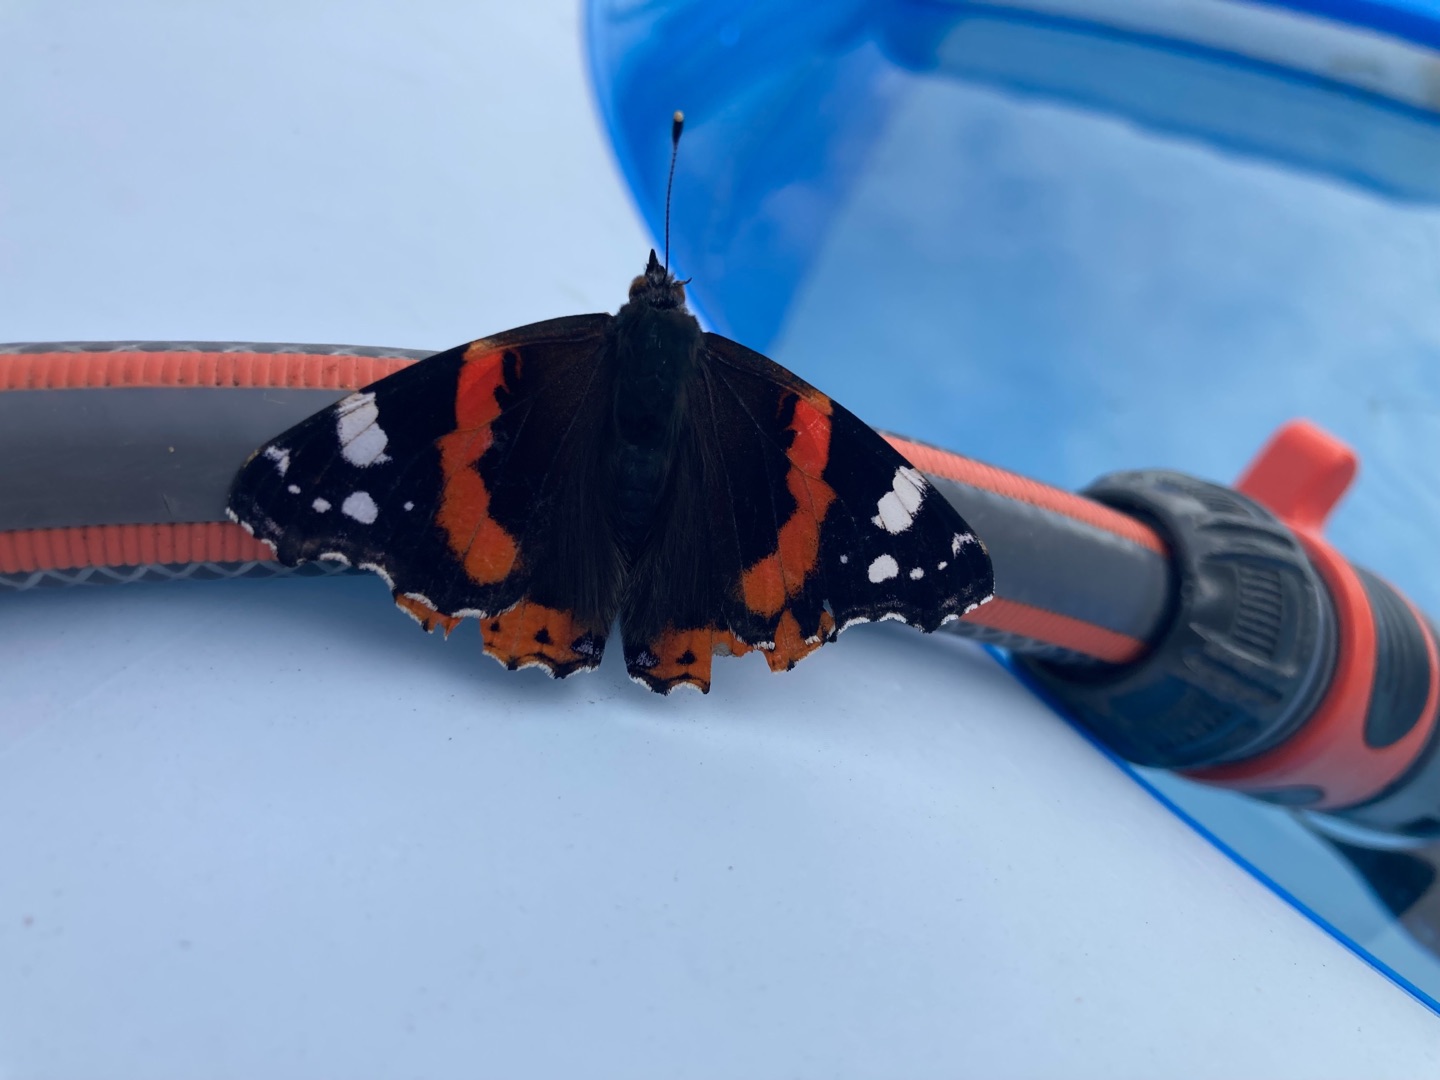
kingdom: Animalia
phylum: Arthropoda
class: Insecta
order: Lepidoptera
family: Nymphalidae
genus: Vanessa
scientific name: Vanessa atalanta
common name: Admiral
